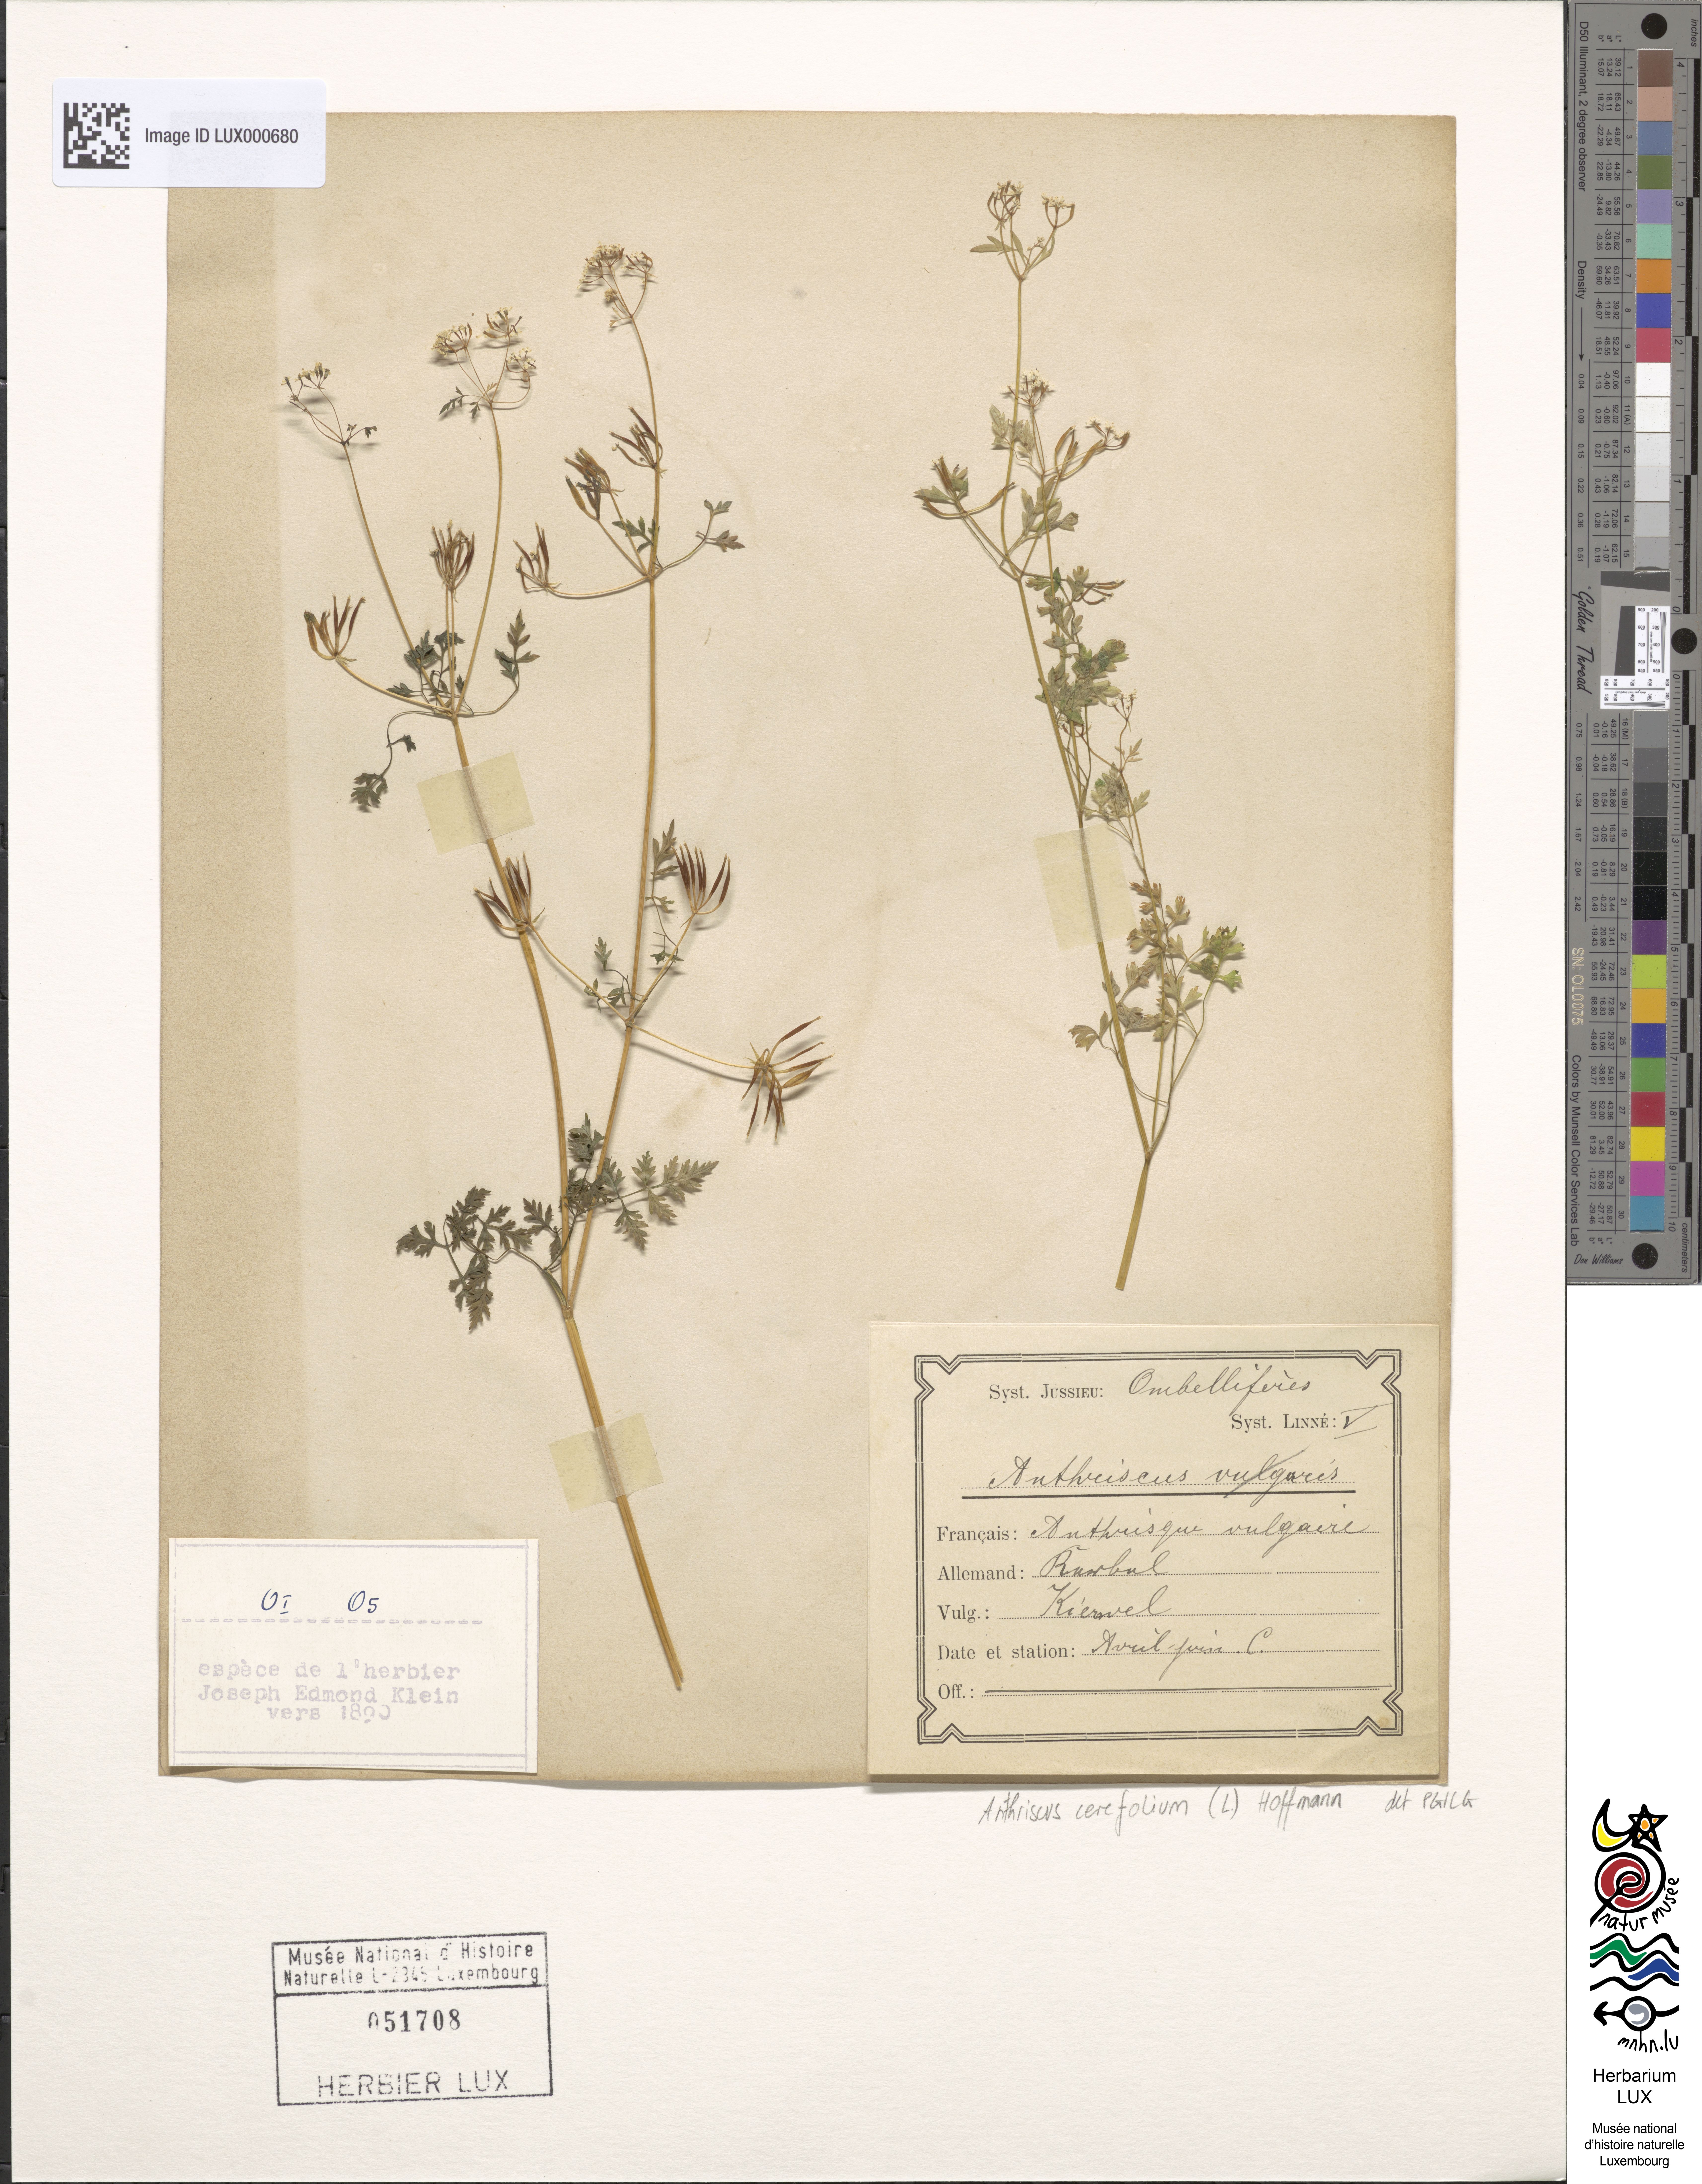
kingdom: Plantae
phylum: Tracheophyta
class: Magnoliopsida
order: Apiales
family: Apiaceae
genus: Anthriscus
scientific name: Anthriscus cerefolium
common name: Garden chervil
